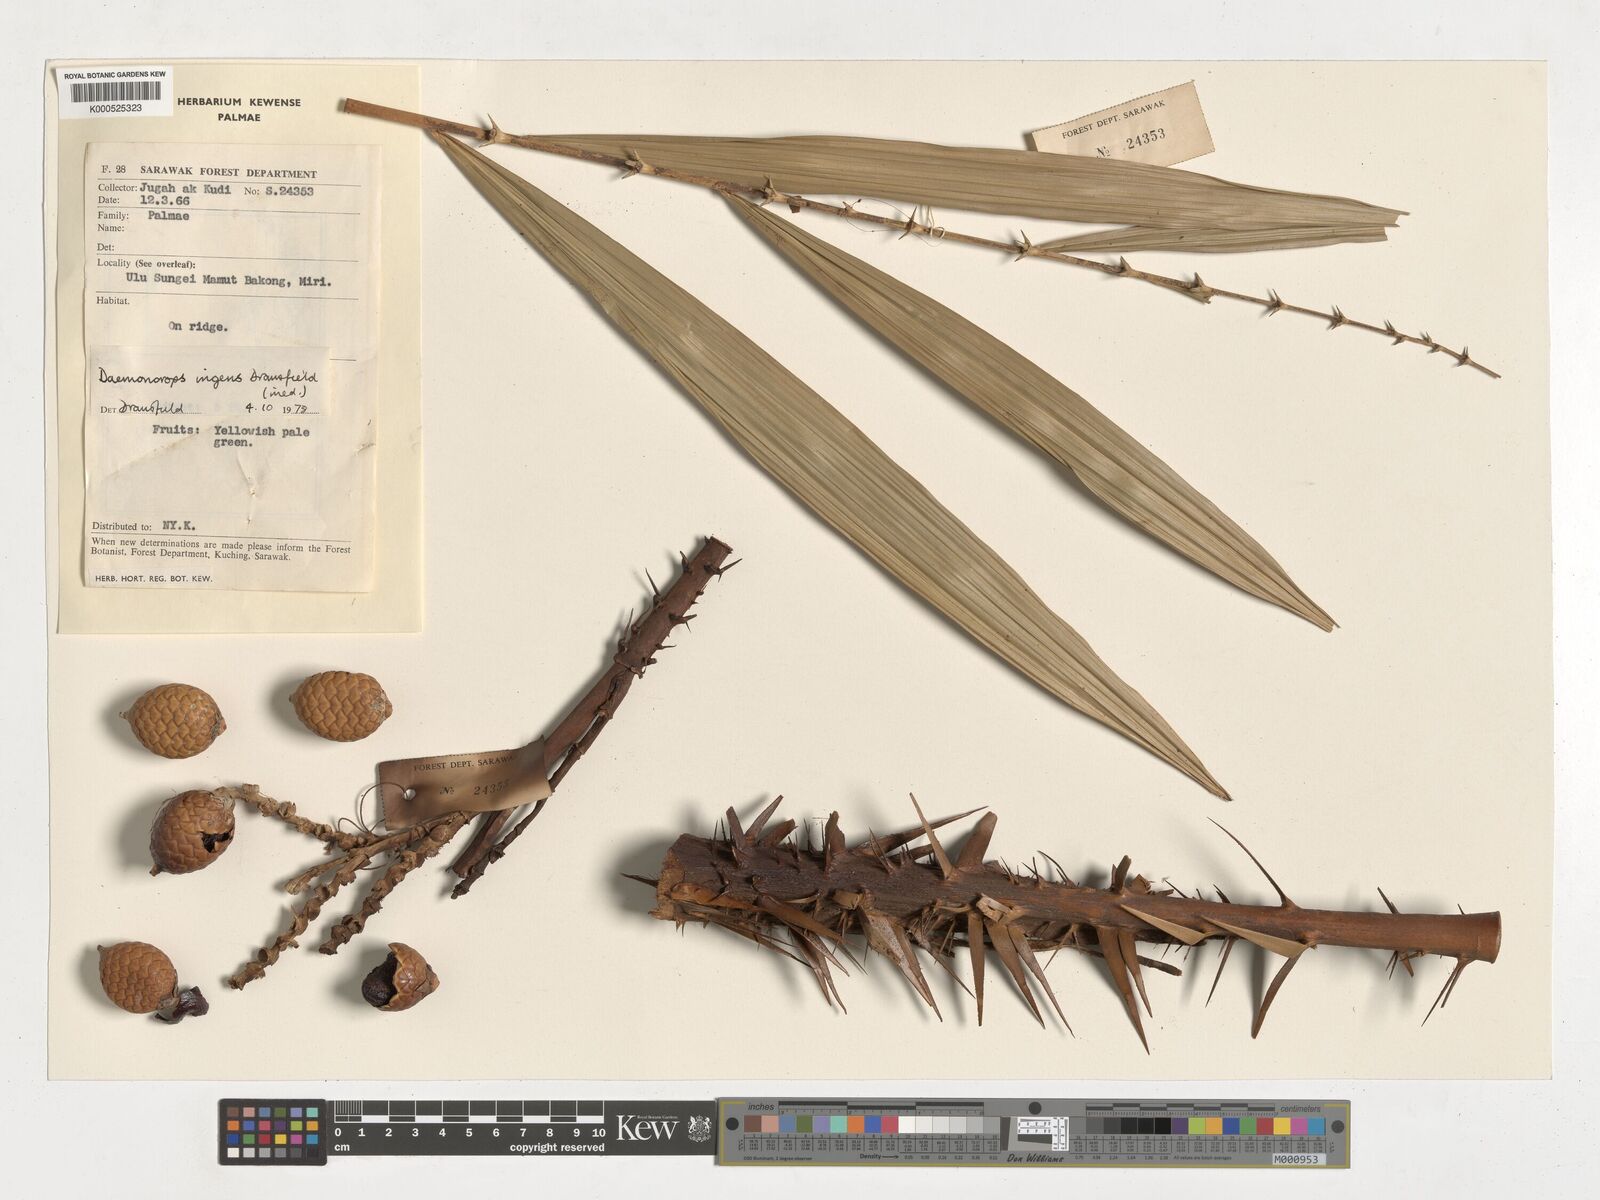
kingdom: Plantae
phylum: Tracheophyta
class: Liliopsida
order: Arecales
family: Arecaceae
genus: Calamus
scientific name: Calamus ingens
